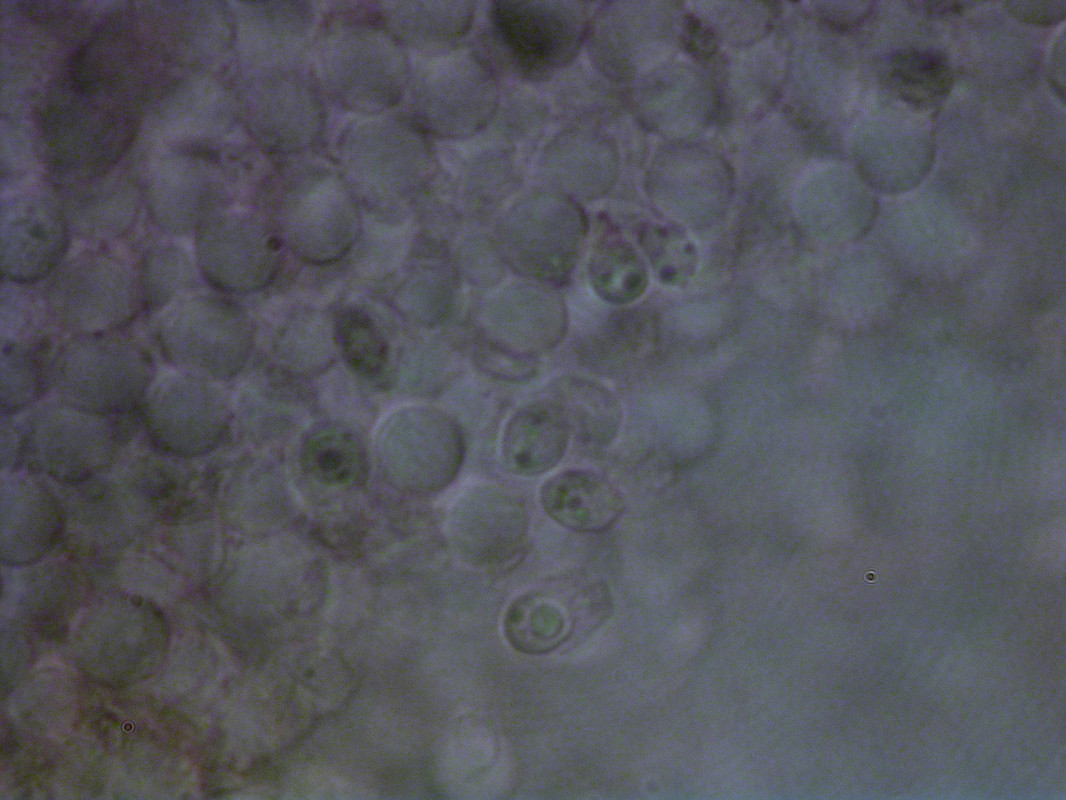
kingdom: Fungi
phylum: Basidiomycota
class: Agaricomycetes
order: Agaricales
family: Tricholomataceae
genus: Clitocybe
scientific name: Clitocybe agrestis
